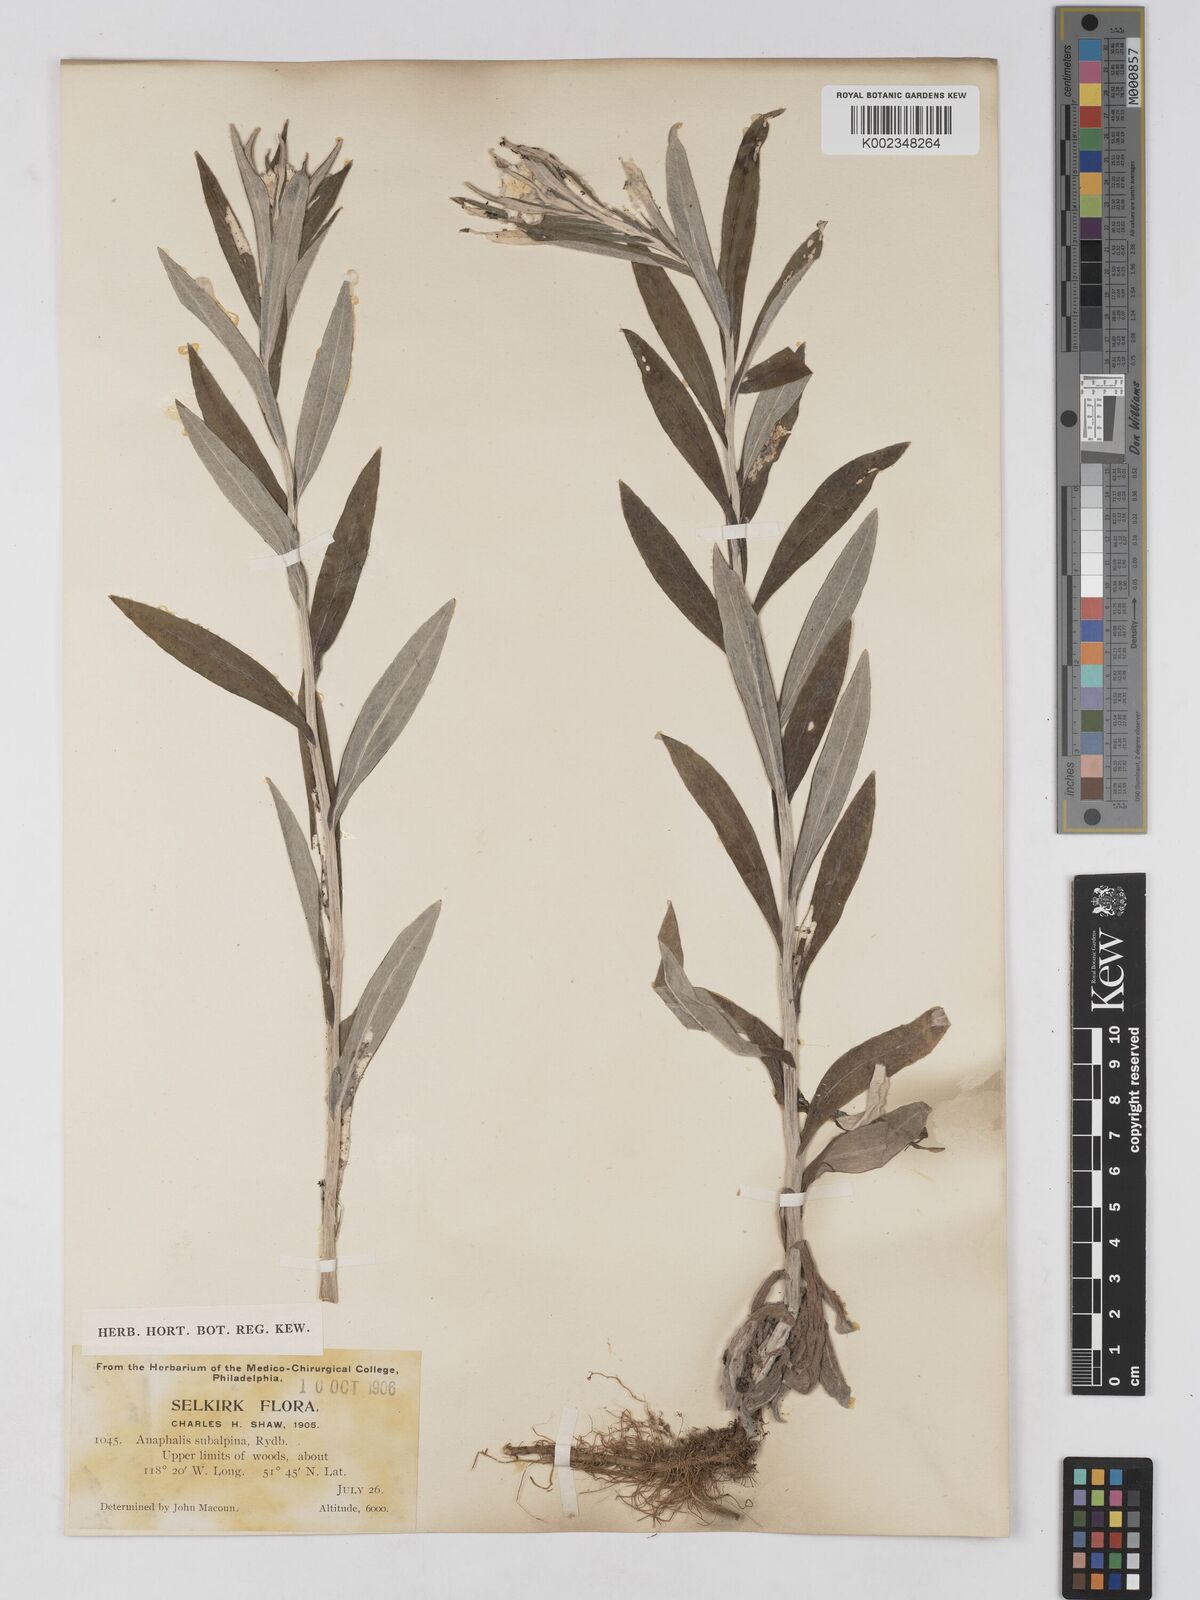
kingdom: Plantae
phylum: Tracheophyta
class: Magnoliopsida
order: Asterales
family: Asteraceae
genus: Anaphalis
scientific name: Anaphalis margaritacea
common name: Pearly everlasting
